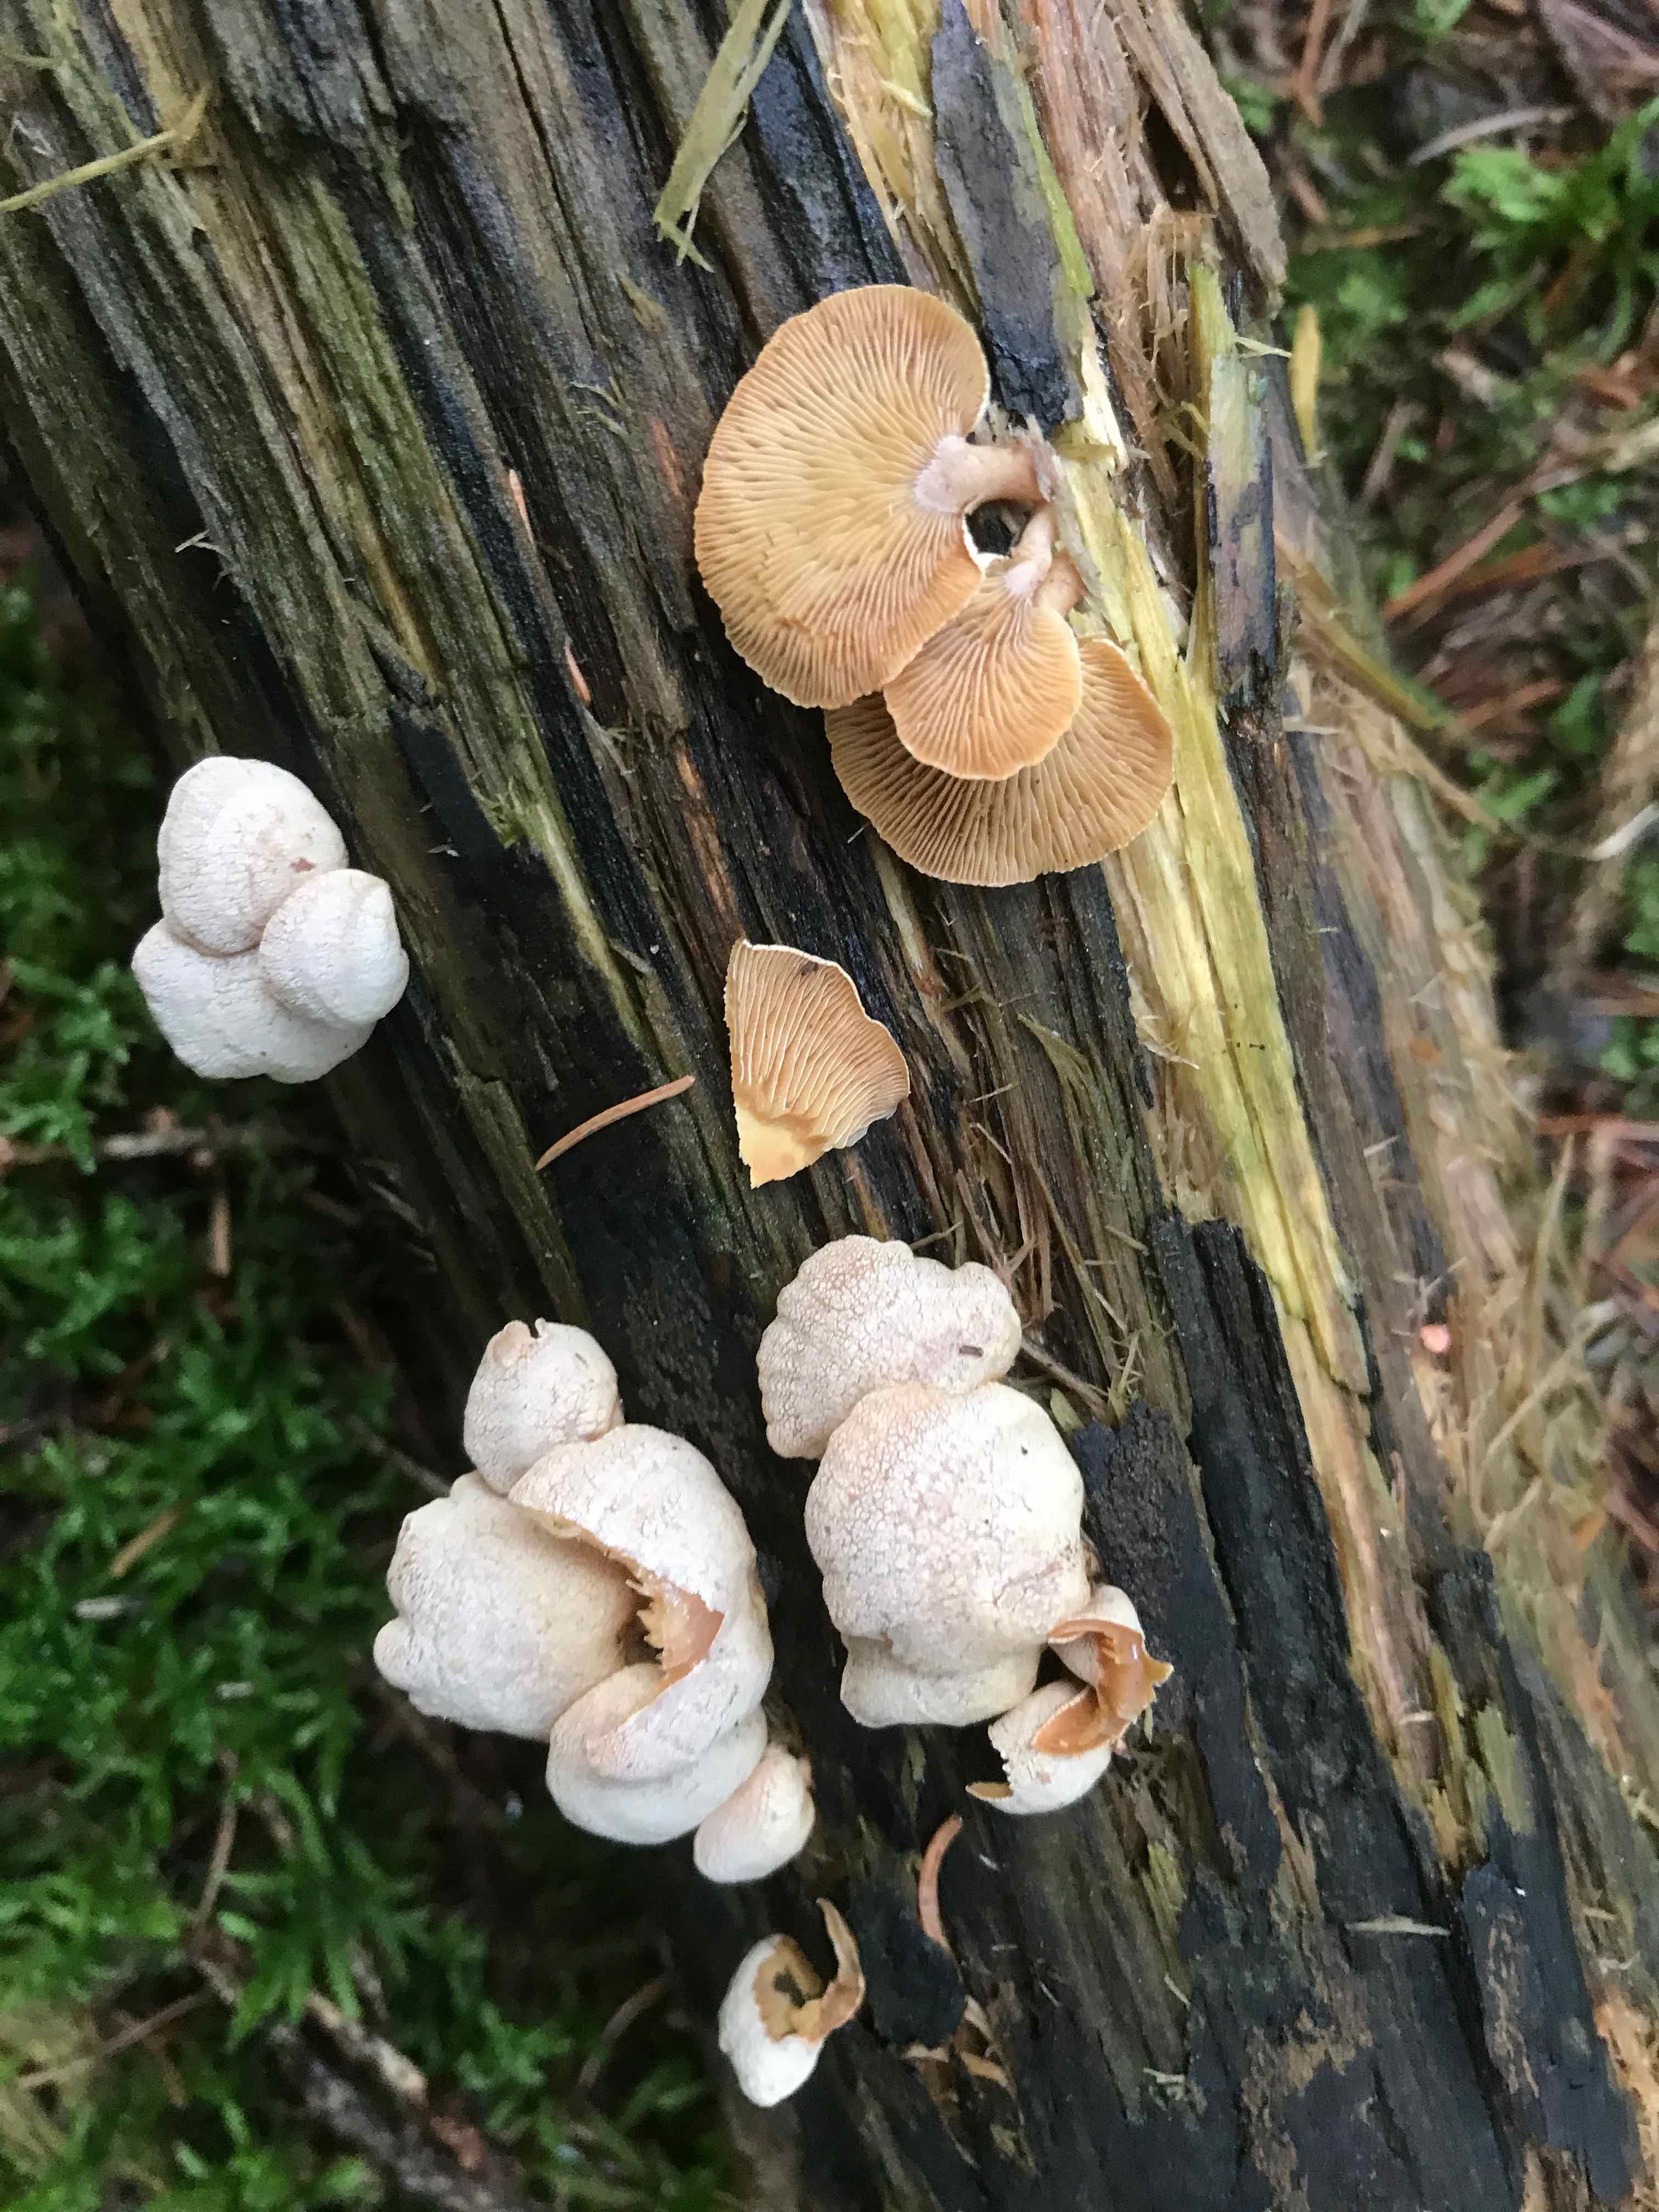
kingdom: Fungi
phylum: Basidiomycota
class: Agaricomycetes
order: Agaricales
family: Mycenaceae
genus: Panellus
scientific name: Panellus stipticus
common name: kliddet epaulethat
